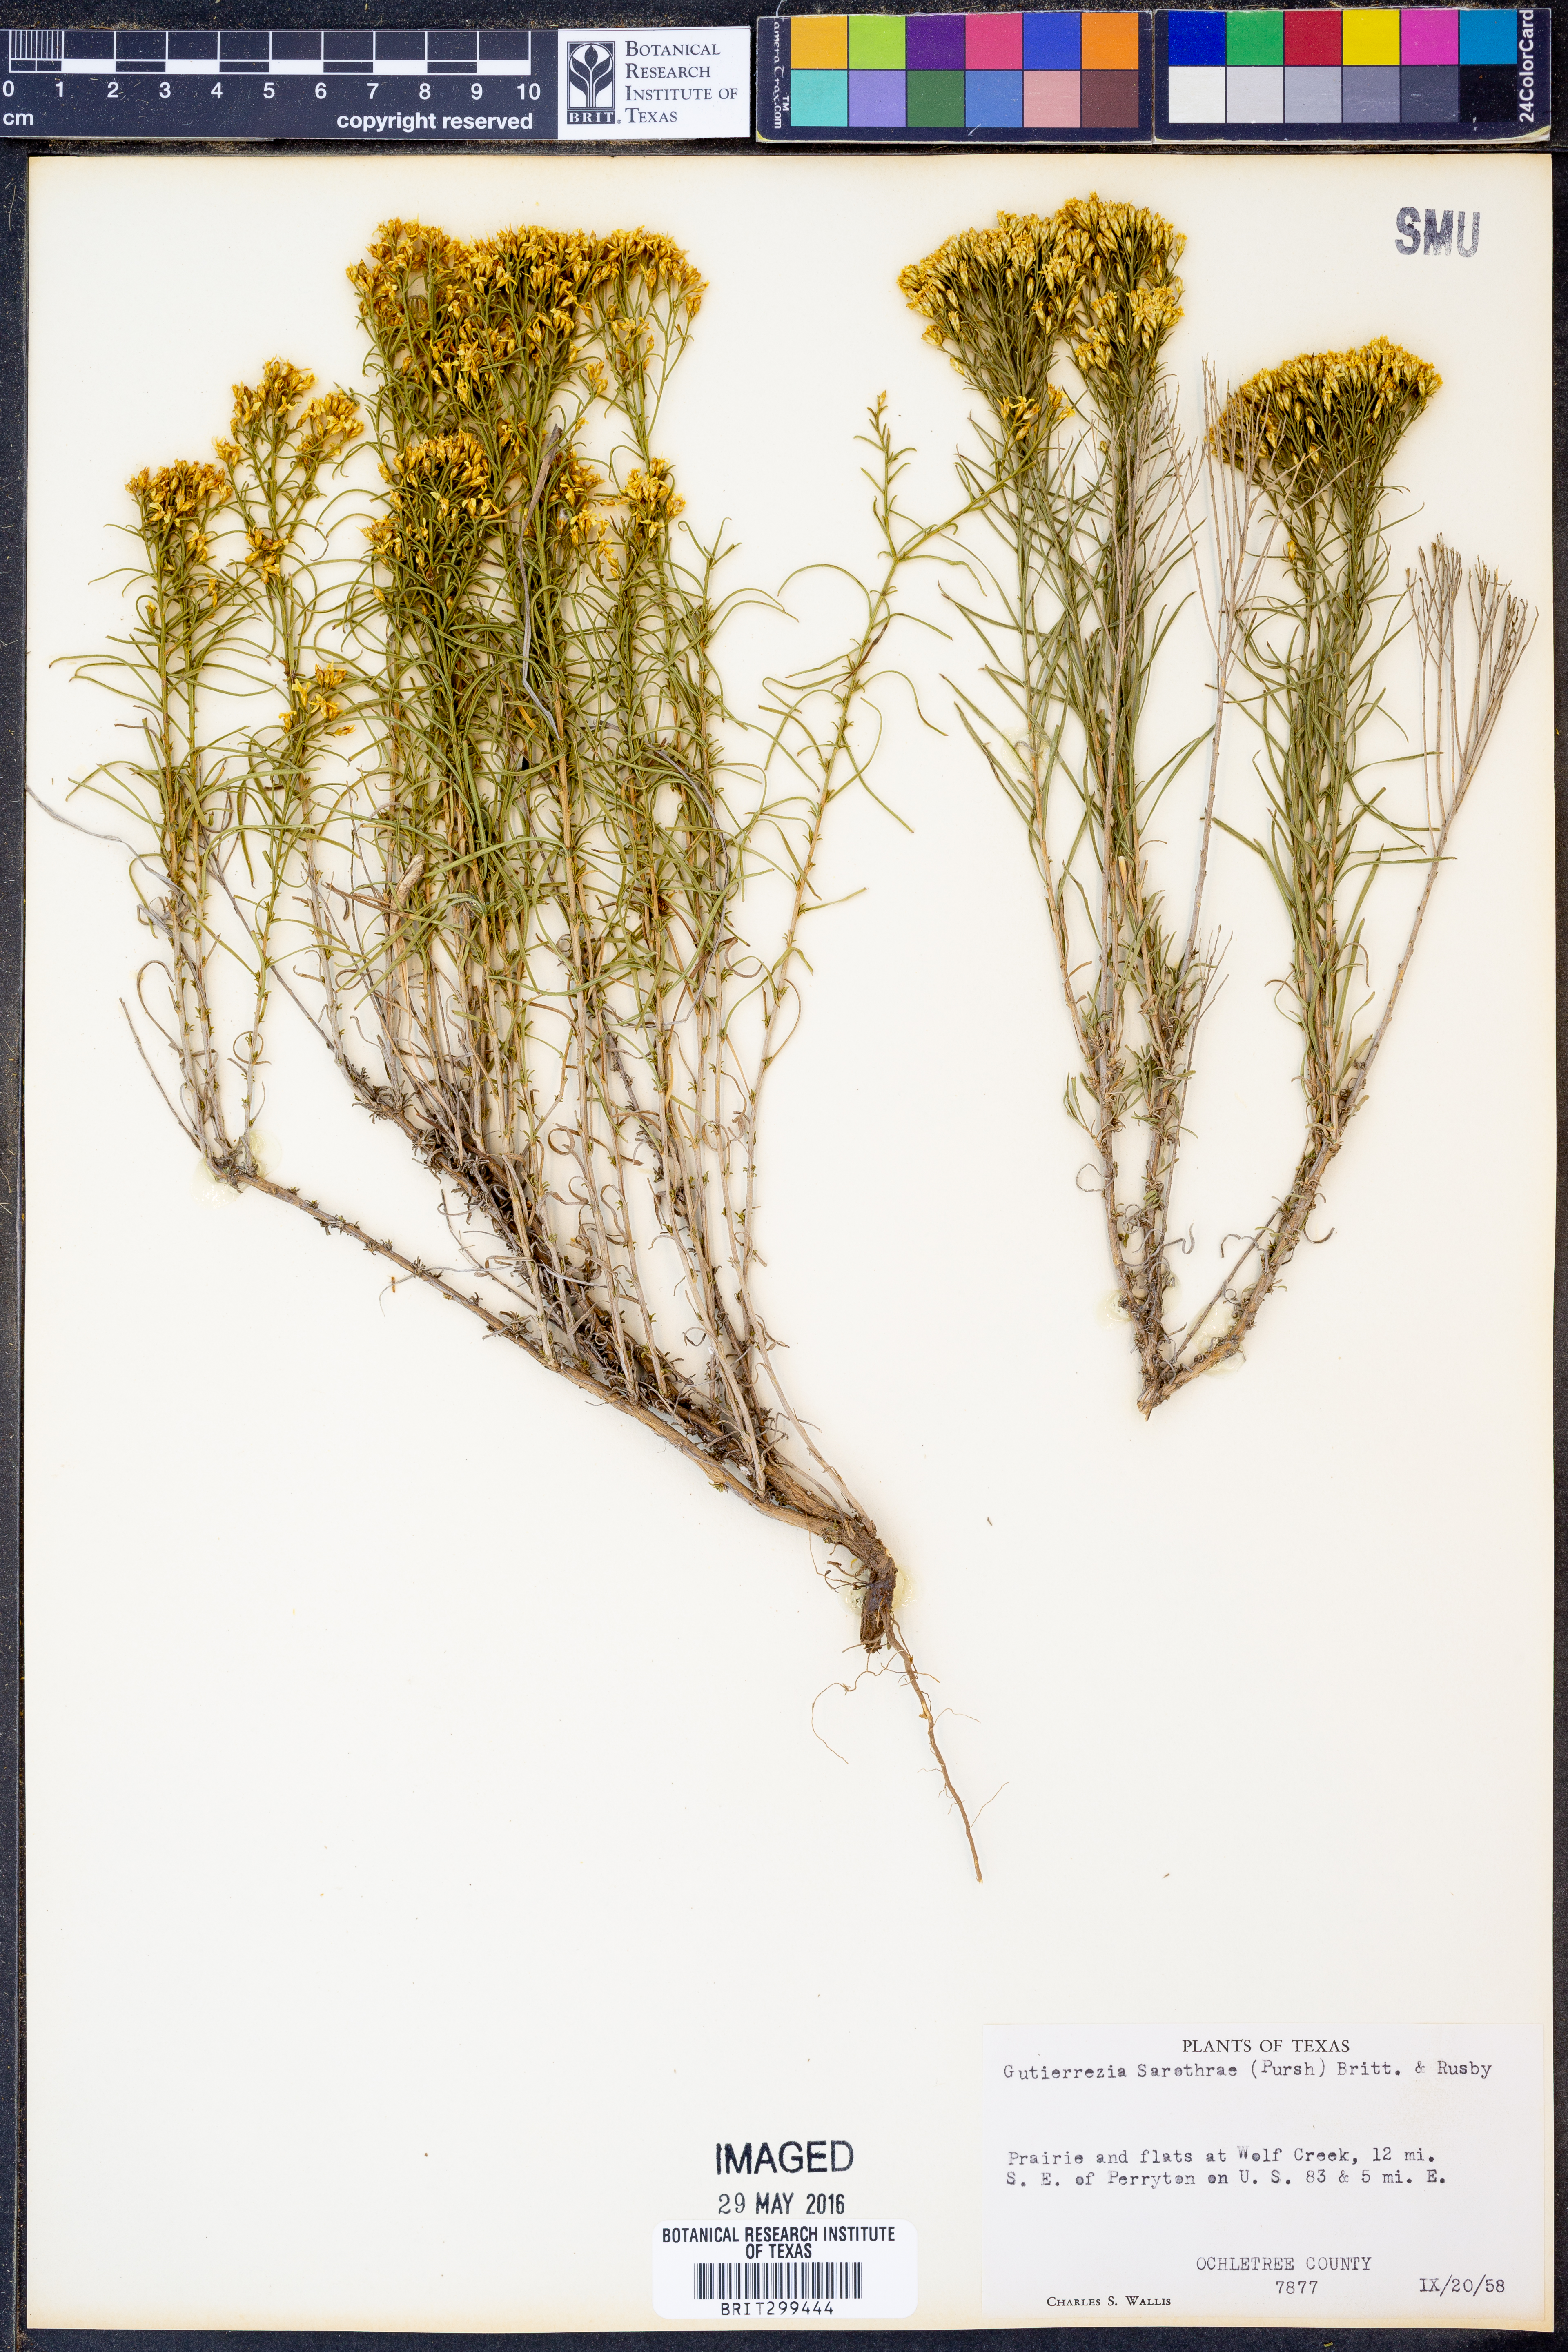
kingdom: Plantae
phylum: Tracheophyta
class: Magnoliopsida
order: Asterales
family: Asteraceae
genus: Gutierrezia
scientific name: Gutierrezia sarothrae
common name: Broom snakeweed
